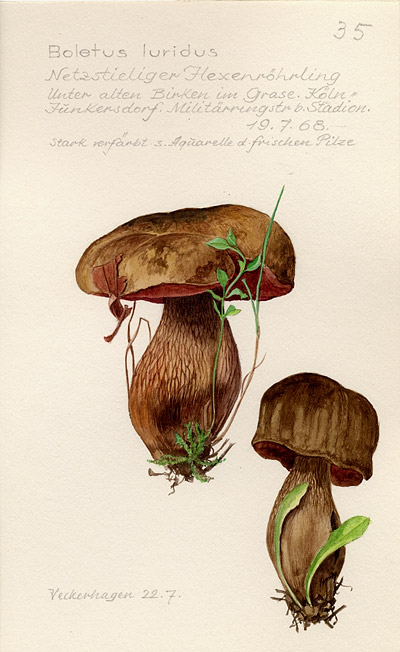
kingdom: Fungi
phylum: Basidiomycota
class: Agaricomycetes
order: Boletales
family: Boletaceae
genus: Suillellus
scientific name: Suillellus luridus
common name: Lurid bolete
